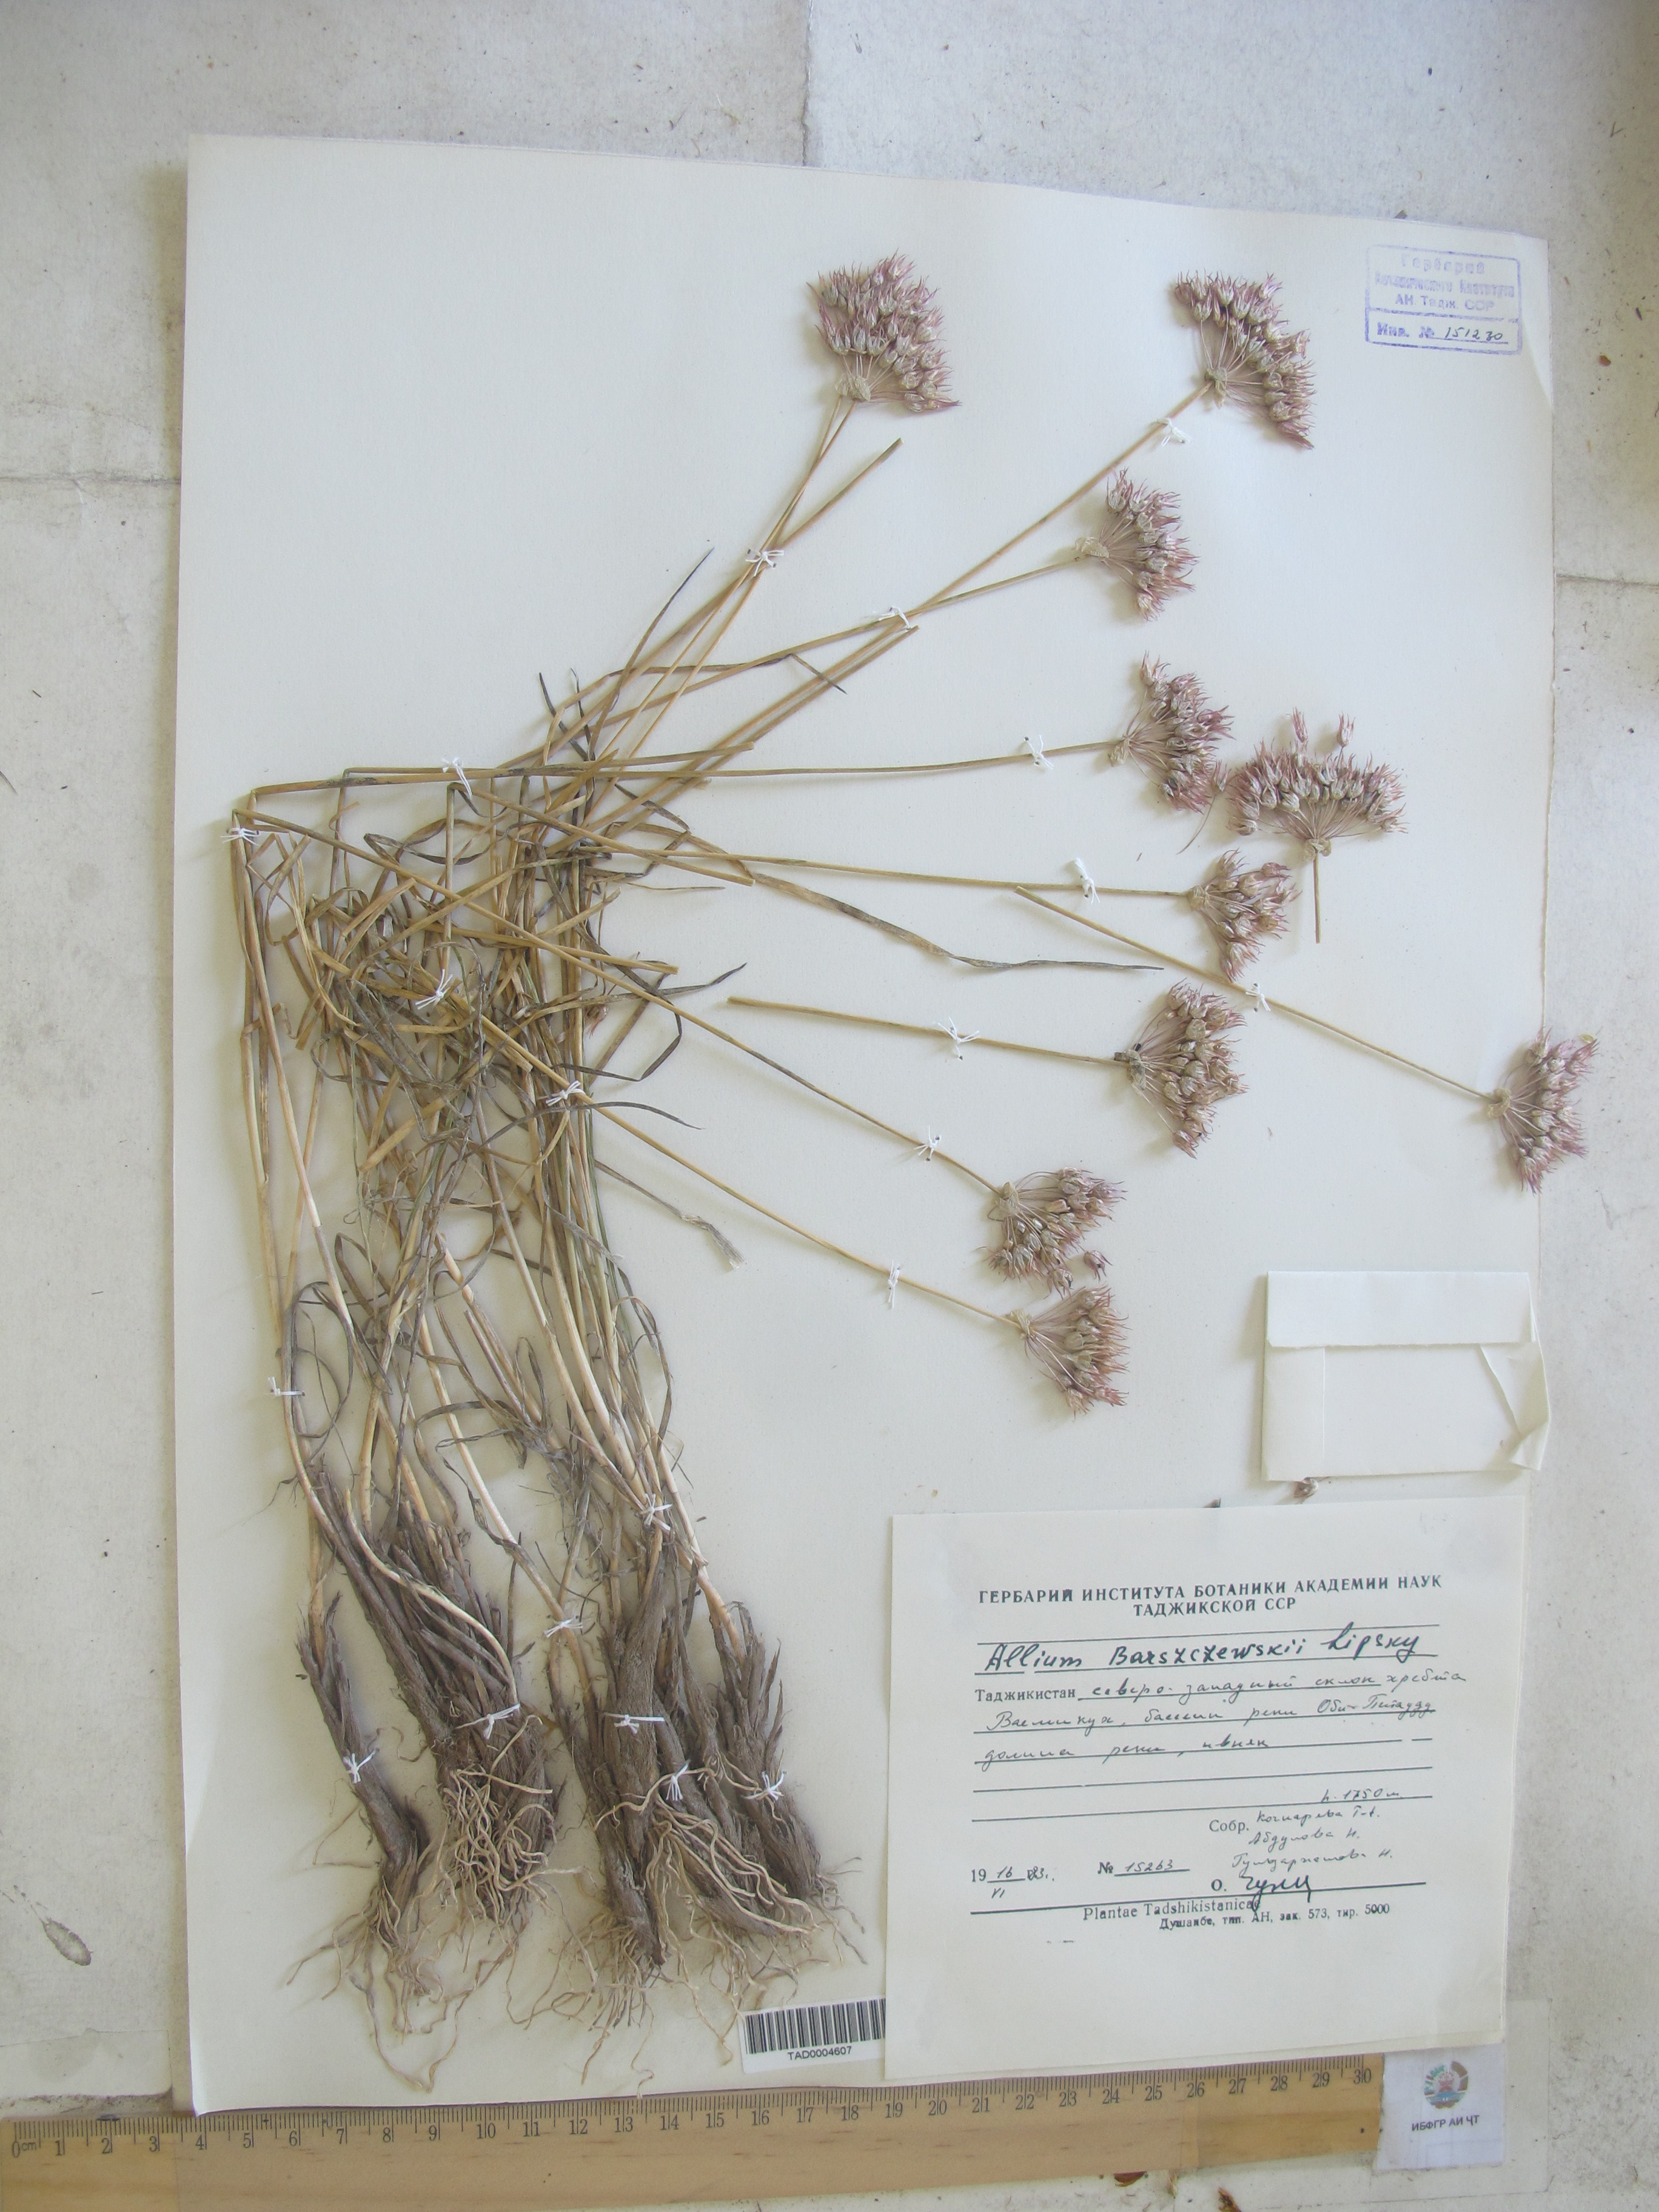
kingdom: Plantae
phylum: Tracheophyta
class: Liliopsida
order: Asparagales
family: Amaryllidaceae
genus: Allium
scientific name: Allium barsczewskii
